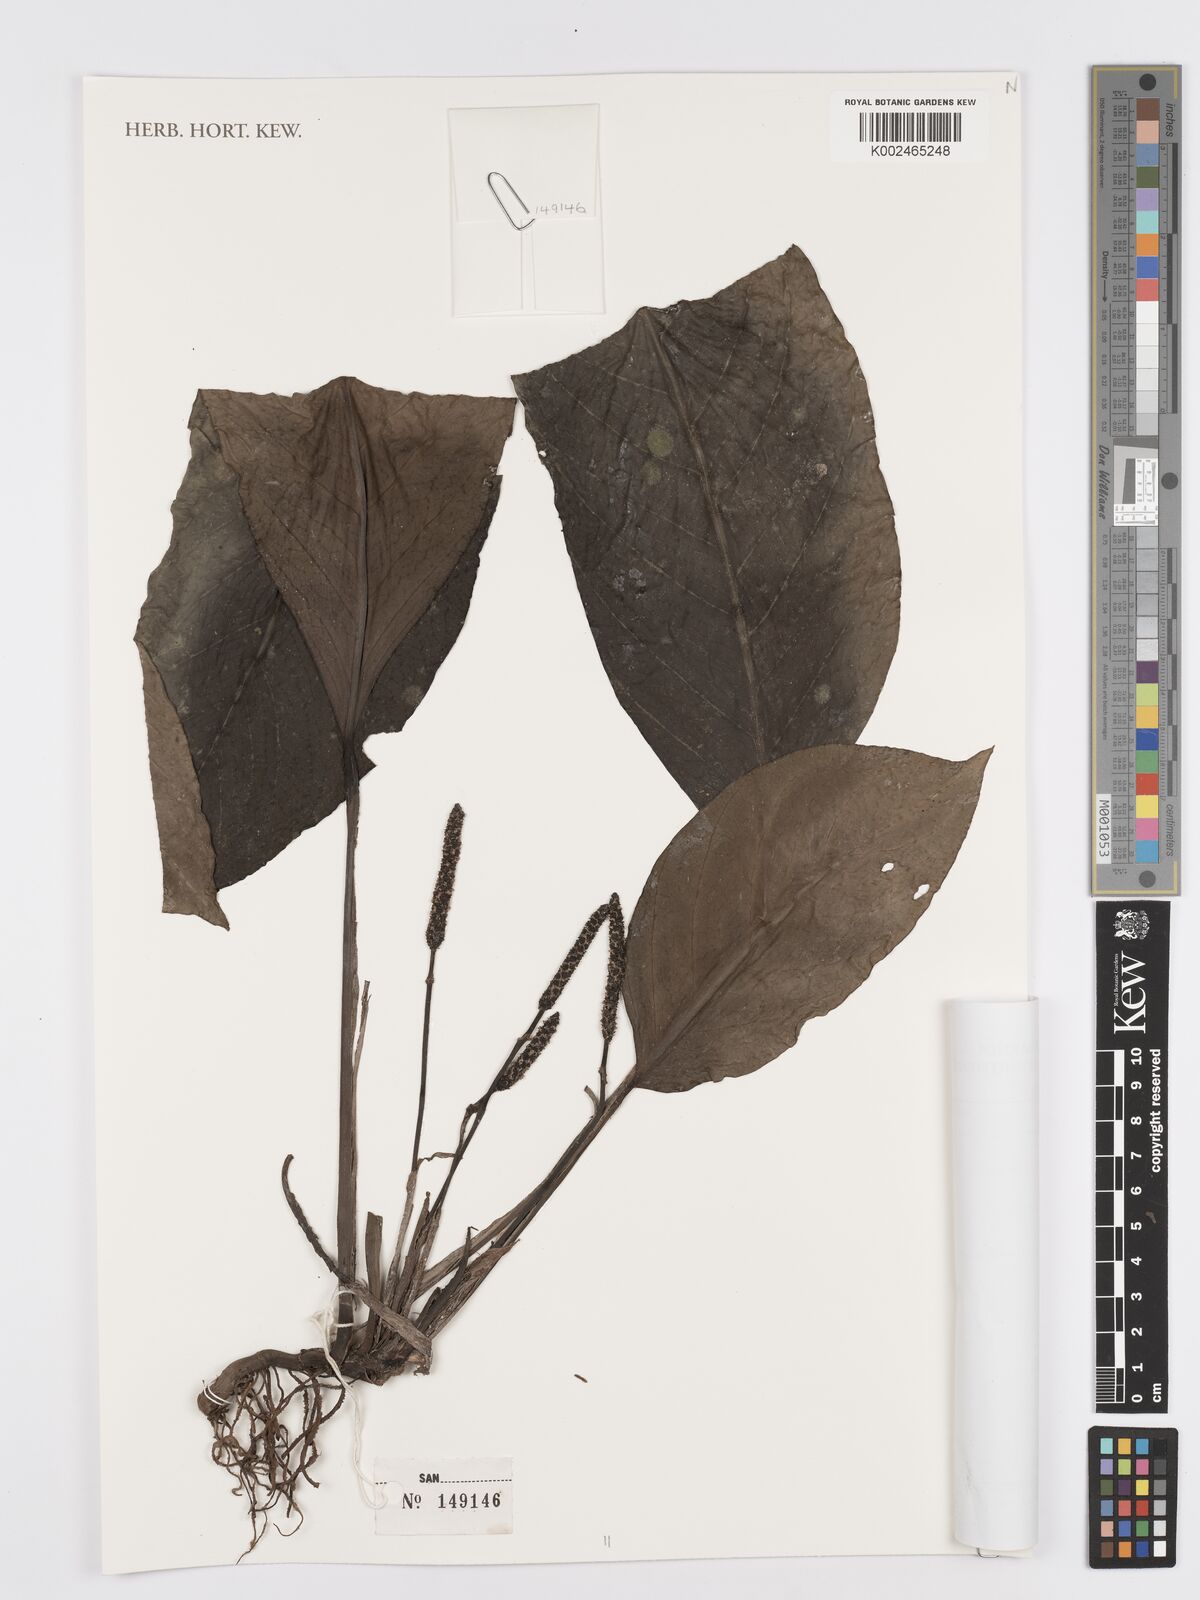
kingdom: Plantae
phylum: Tracheophyta
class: Liliopsida
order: Alismatales
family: Araceae
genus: Anadendrum
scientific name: Anadendrum microstachyum
